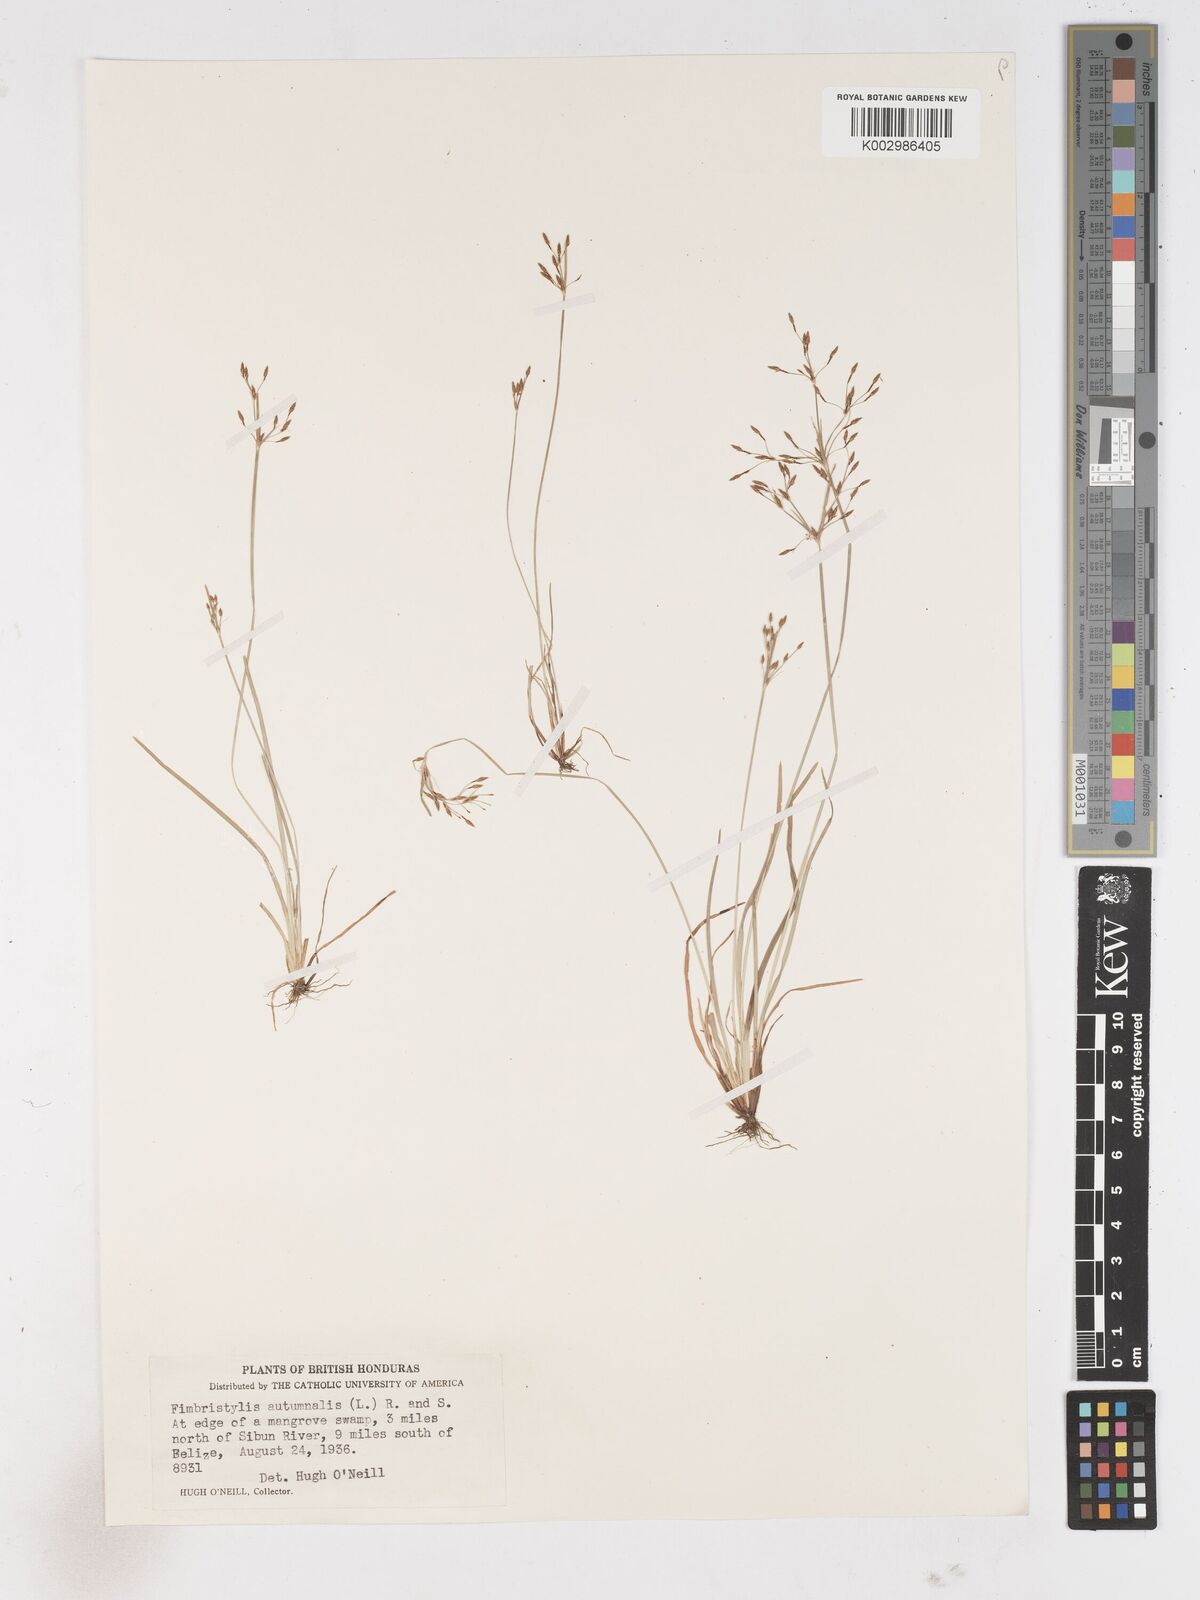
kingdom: Plantae
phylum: Tracheophyta
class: Liliopsida
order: Poales
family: Cyperaceae
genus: Fimbristylis
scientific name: Fimbristylis autumnalis
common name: Slender fimbristylis
